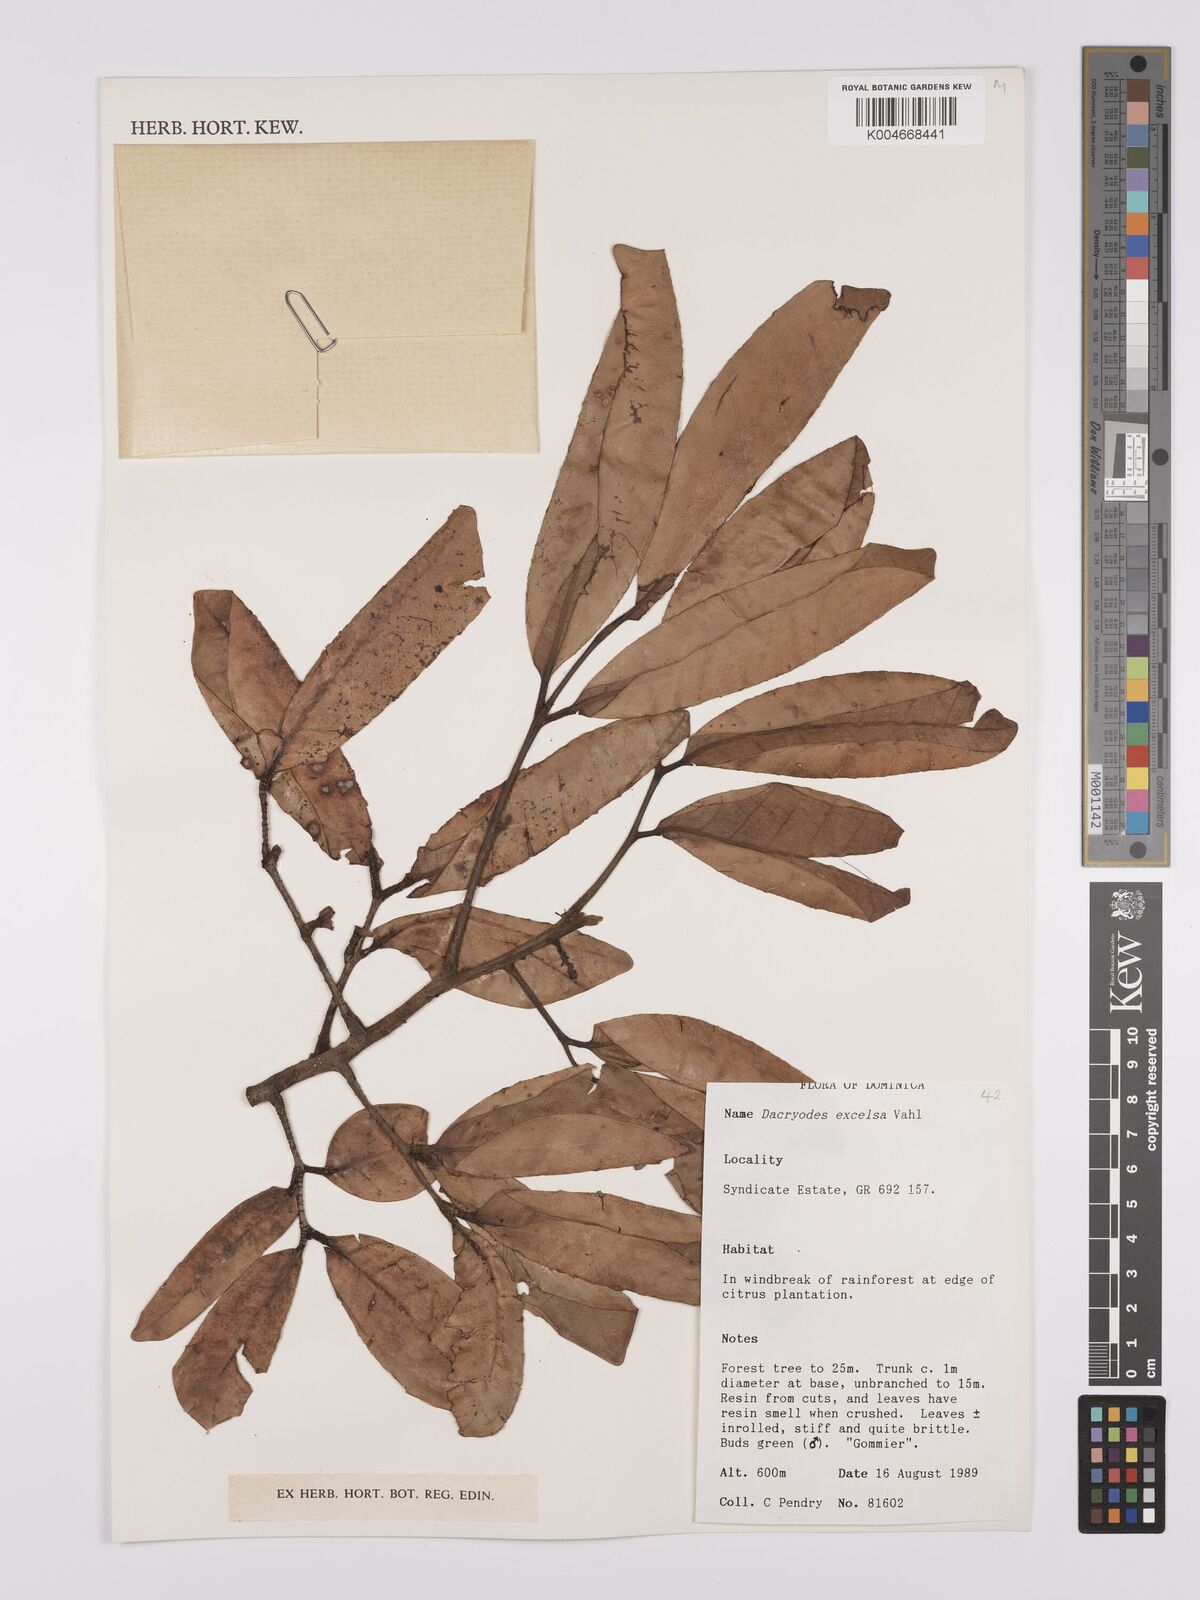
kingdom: Plantae
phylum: Tracheophyta
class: Magnoliopsida
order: Sapindales
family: Burseraceae
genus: Dacryodes
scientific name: Dacryodes excelsa
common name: Candlewood
